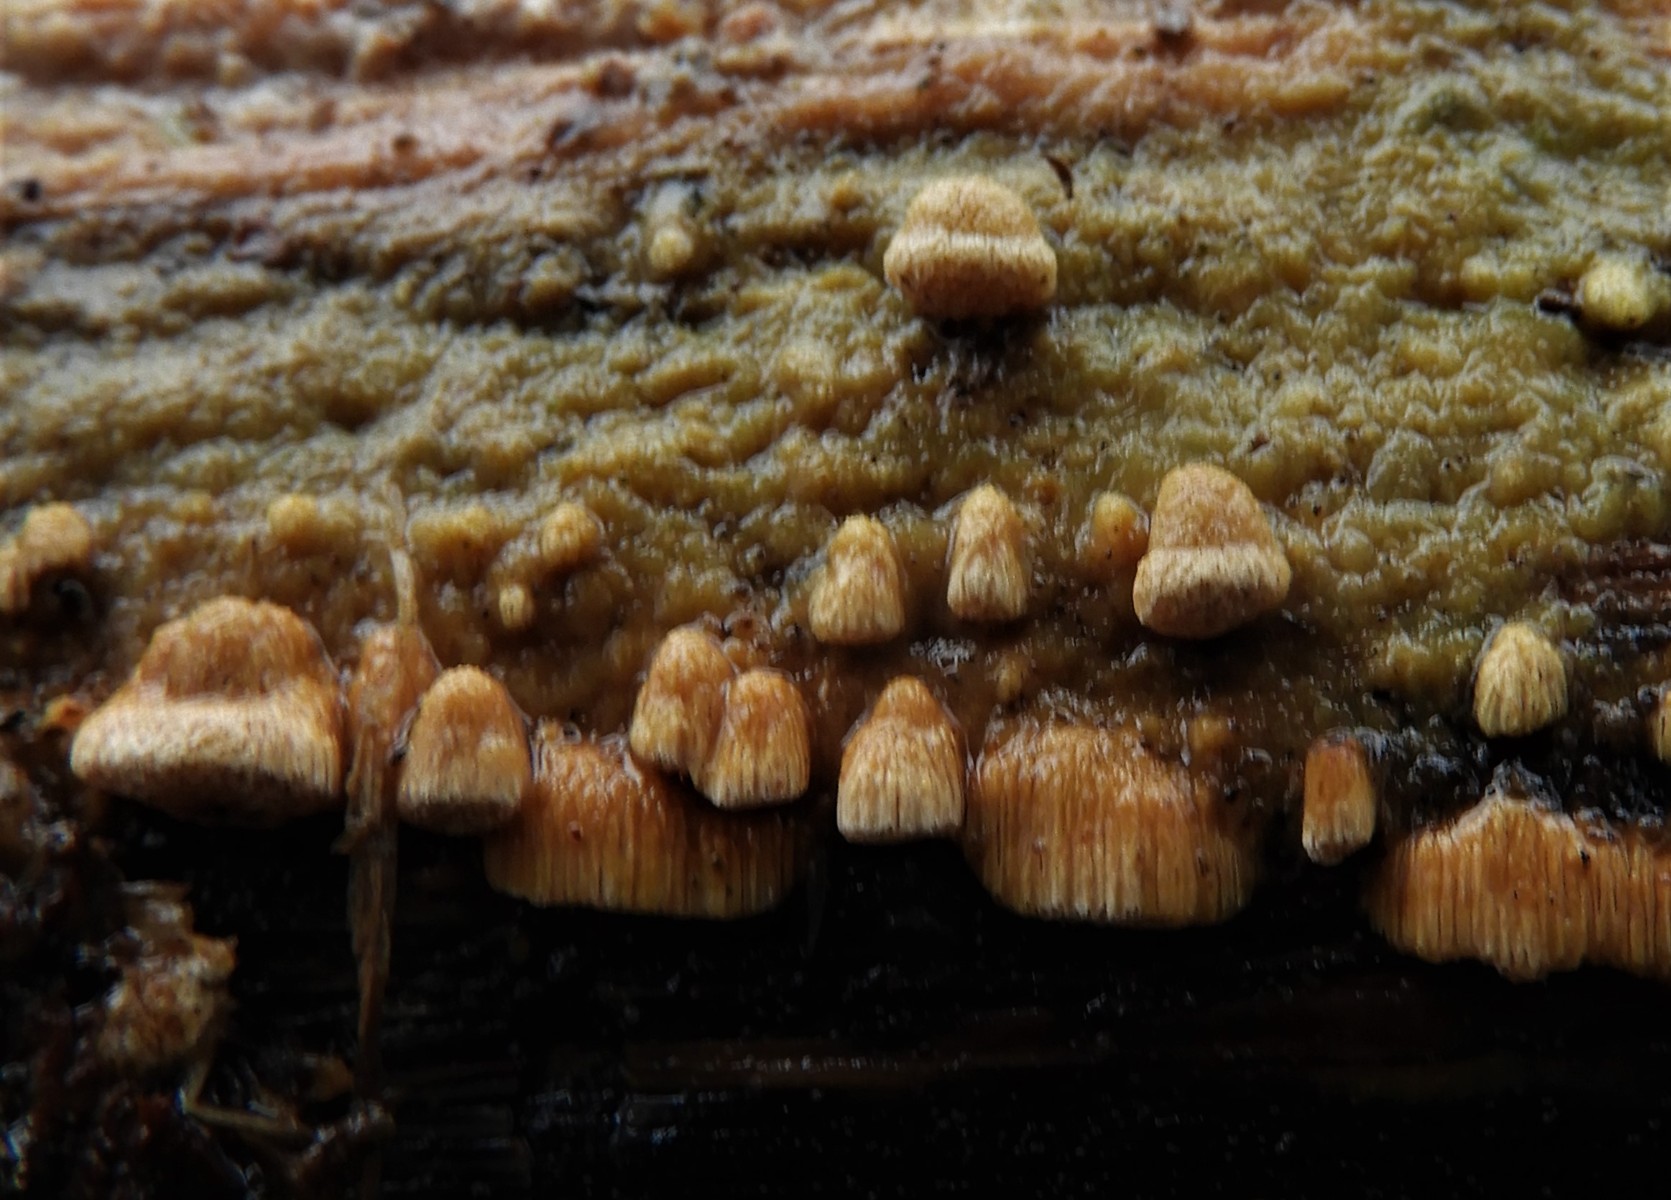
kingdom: Fungi
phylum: Basidiomycota
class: Agaricomycetes
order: Polyporales
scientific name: Polyporales
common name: poresvampordenen
